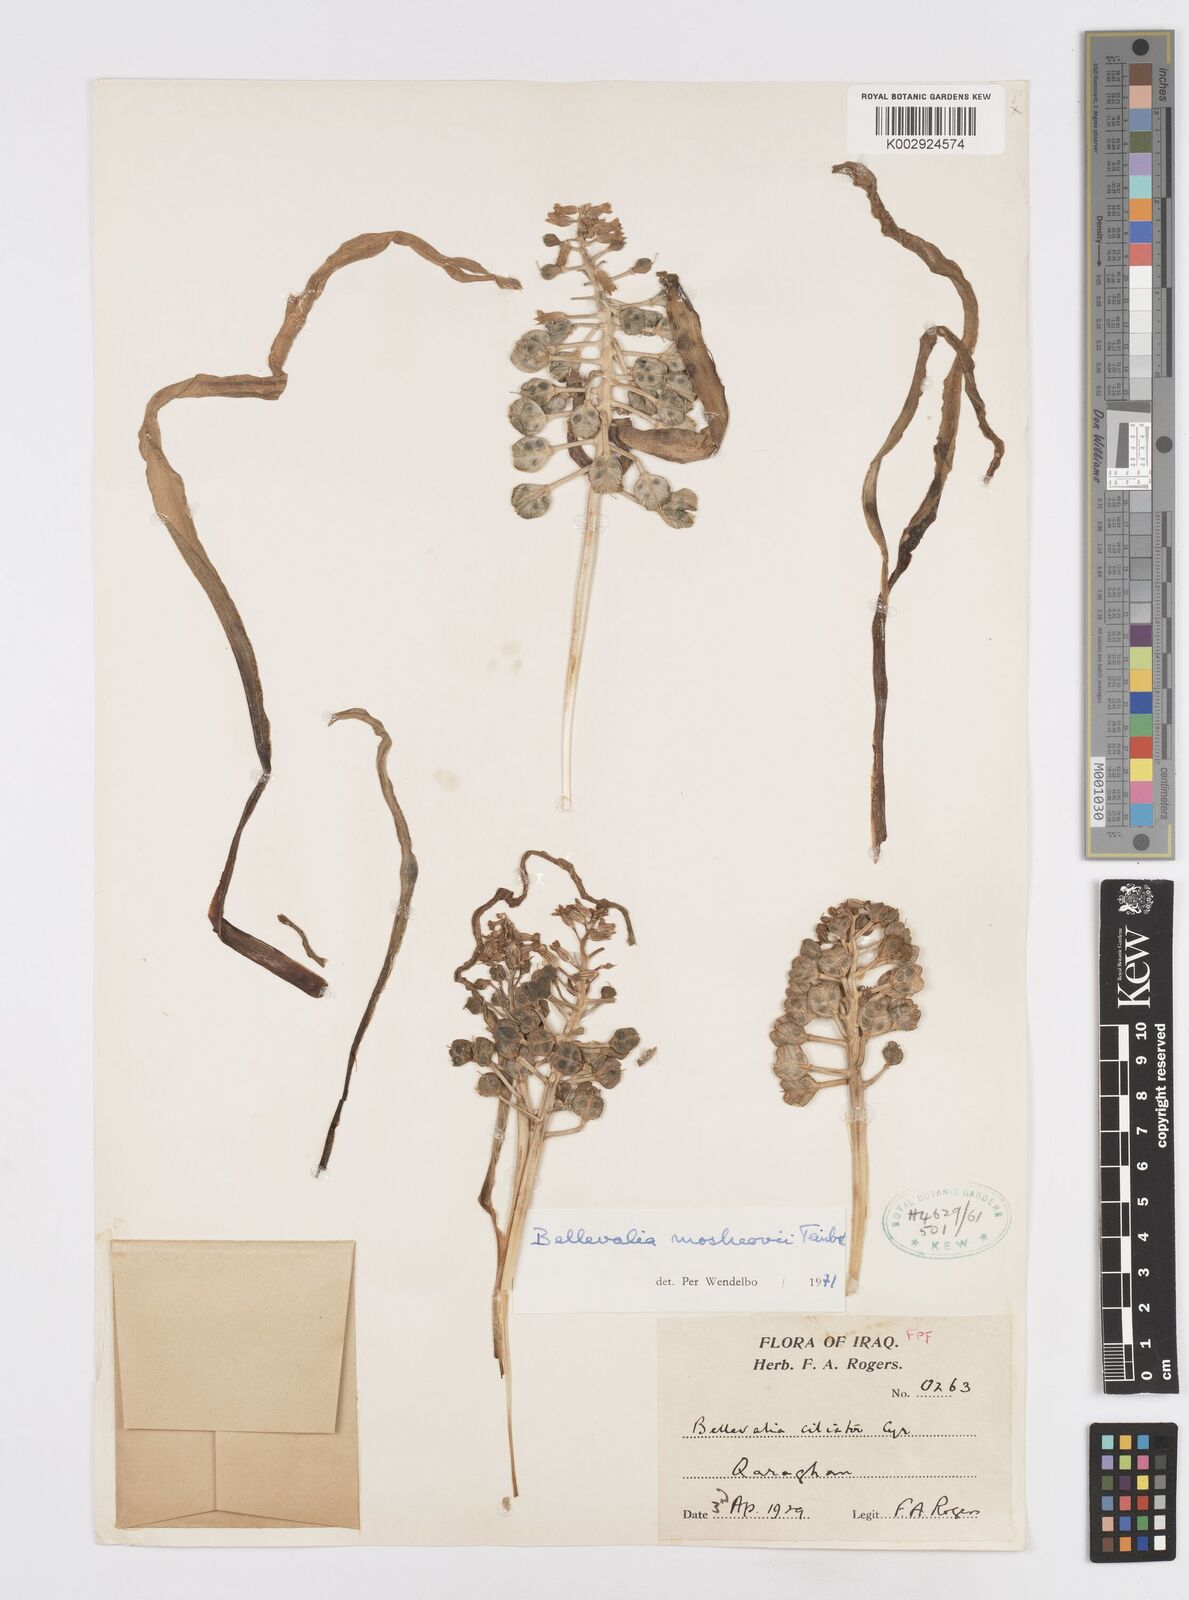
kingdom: Plantae
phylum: Tracheophyta
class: Liliopsida
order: Asparagales
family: Asparagaceae
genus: Bellevalia
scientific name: Bellevalia mosheovii
